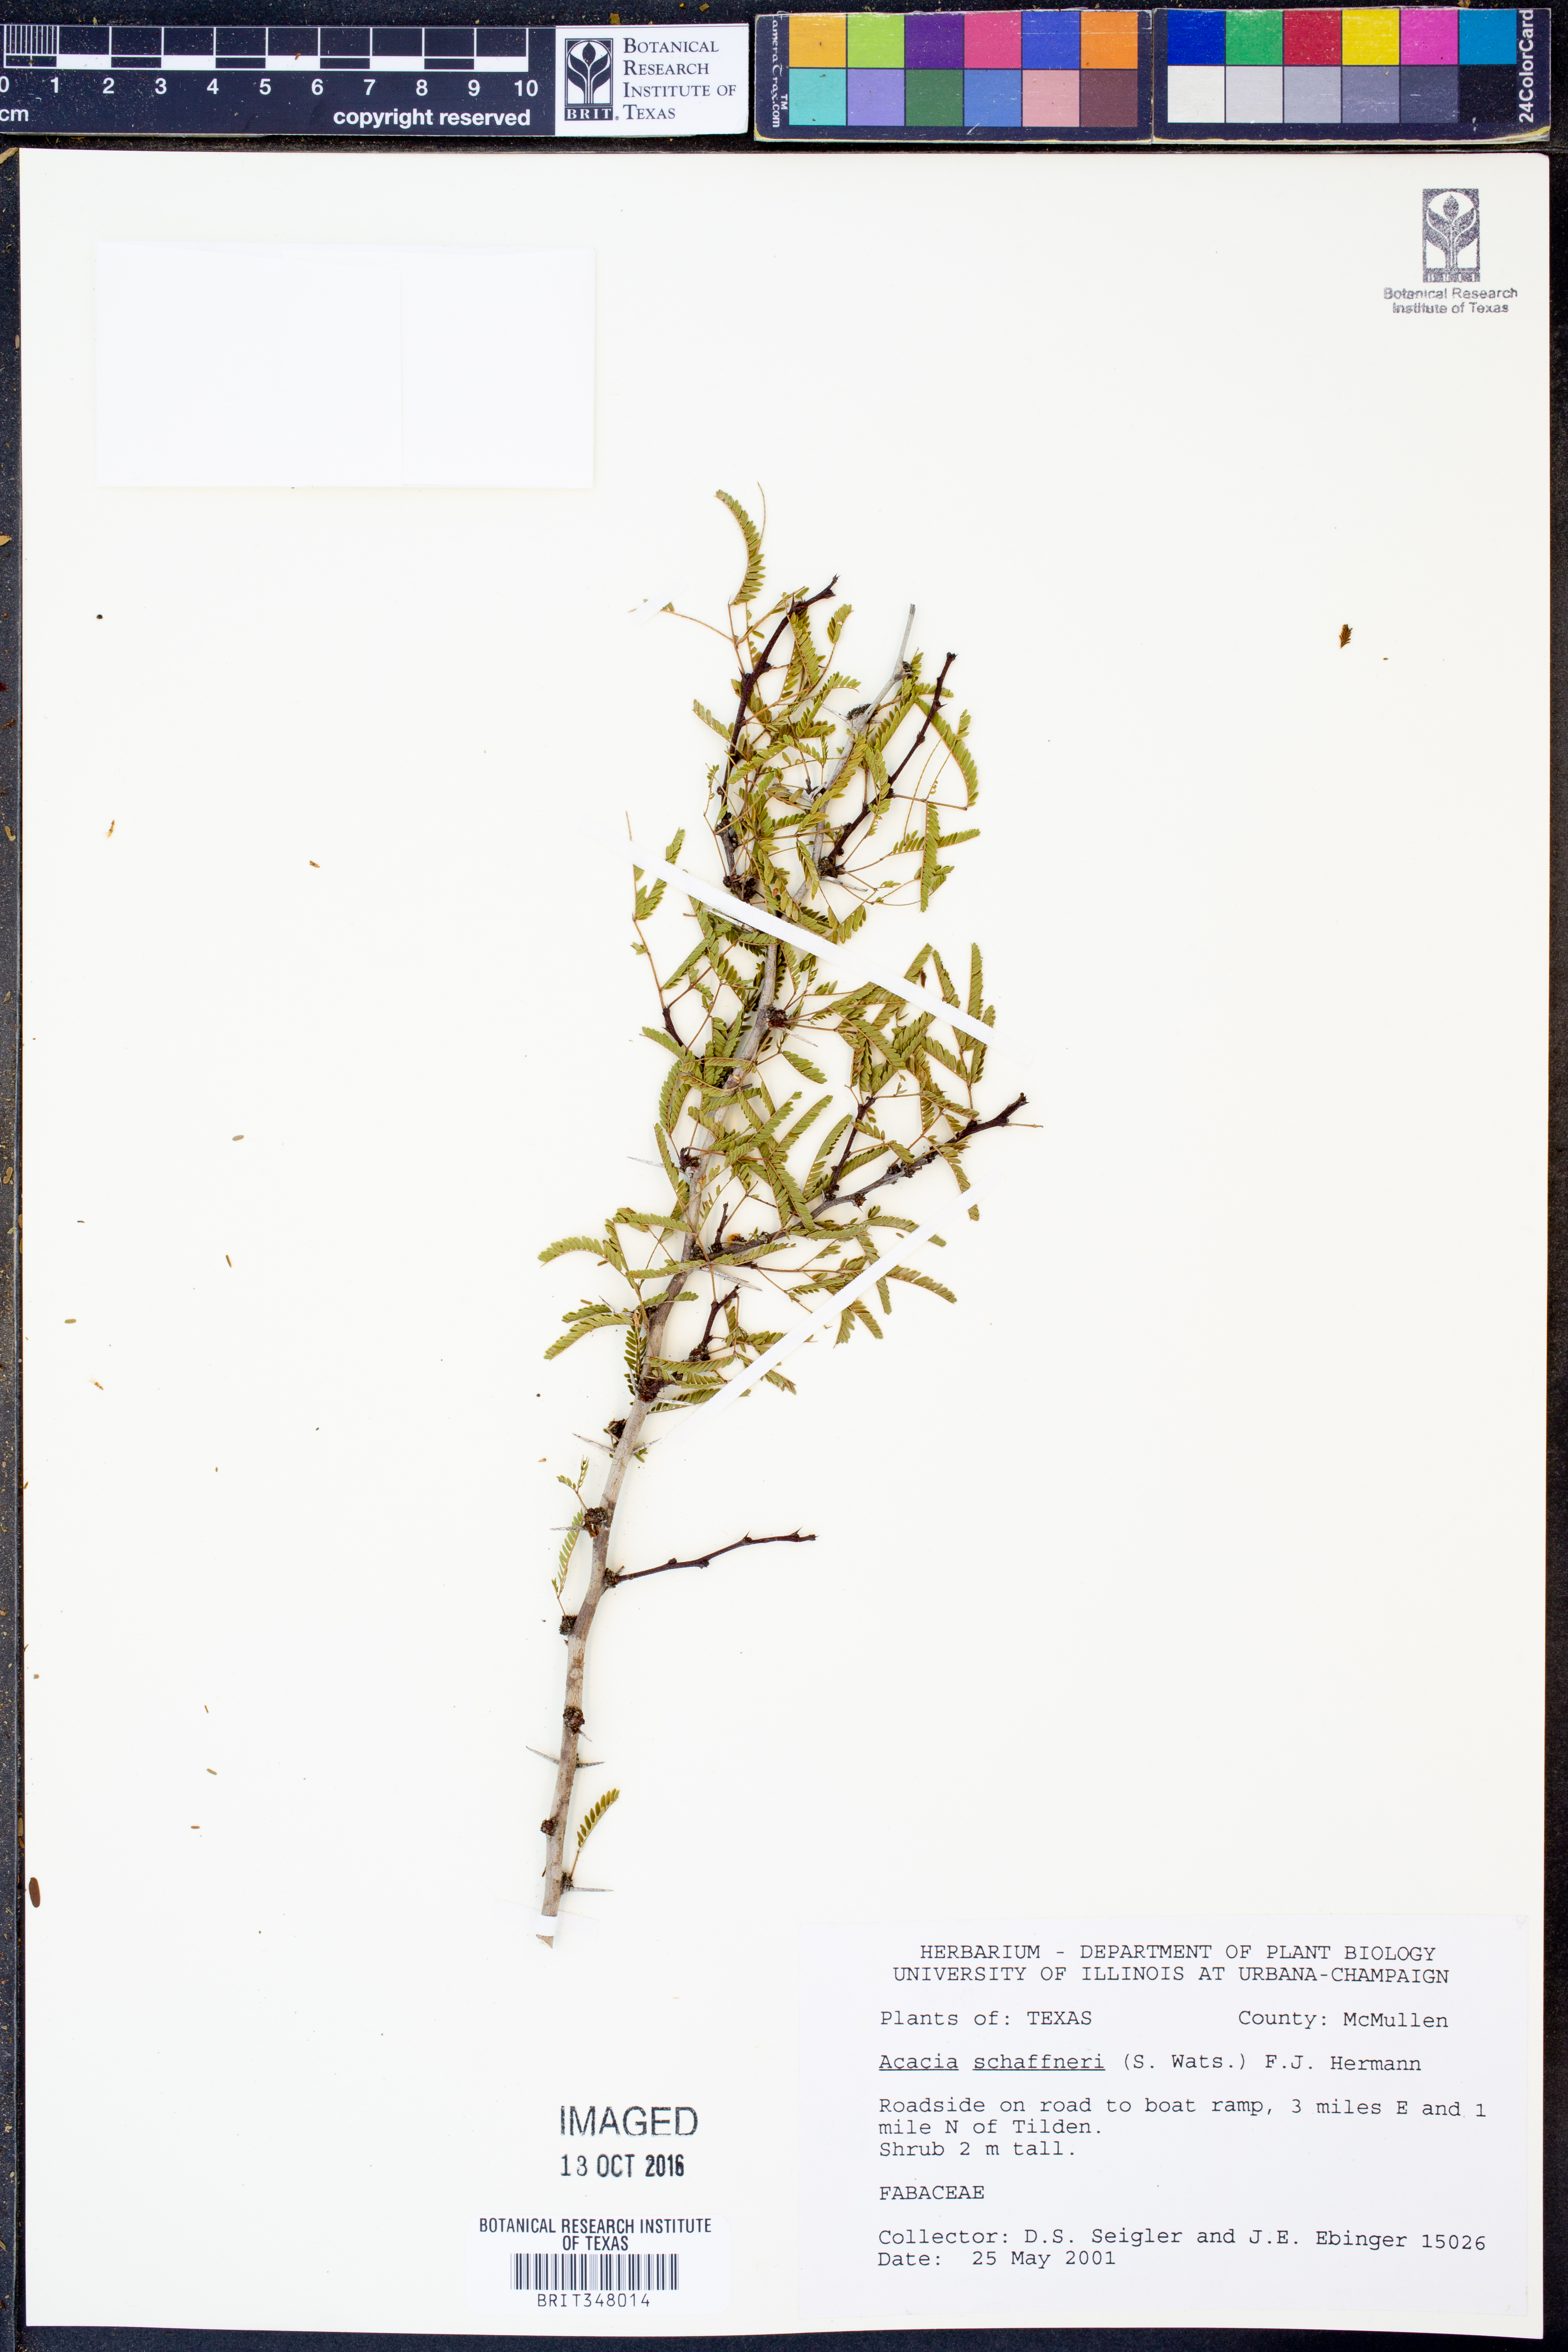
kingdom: Plantae
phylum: Tracheophyta
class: Magnoliopsida
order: Fabales
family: Fabaceae
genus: Vachellia
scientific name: Vachellia schaffneri
